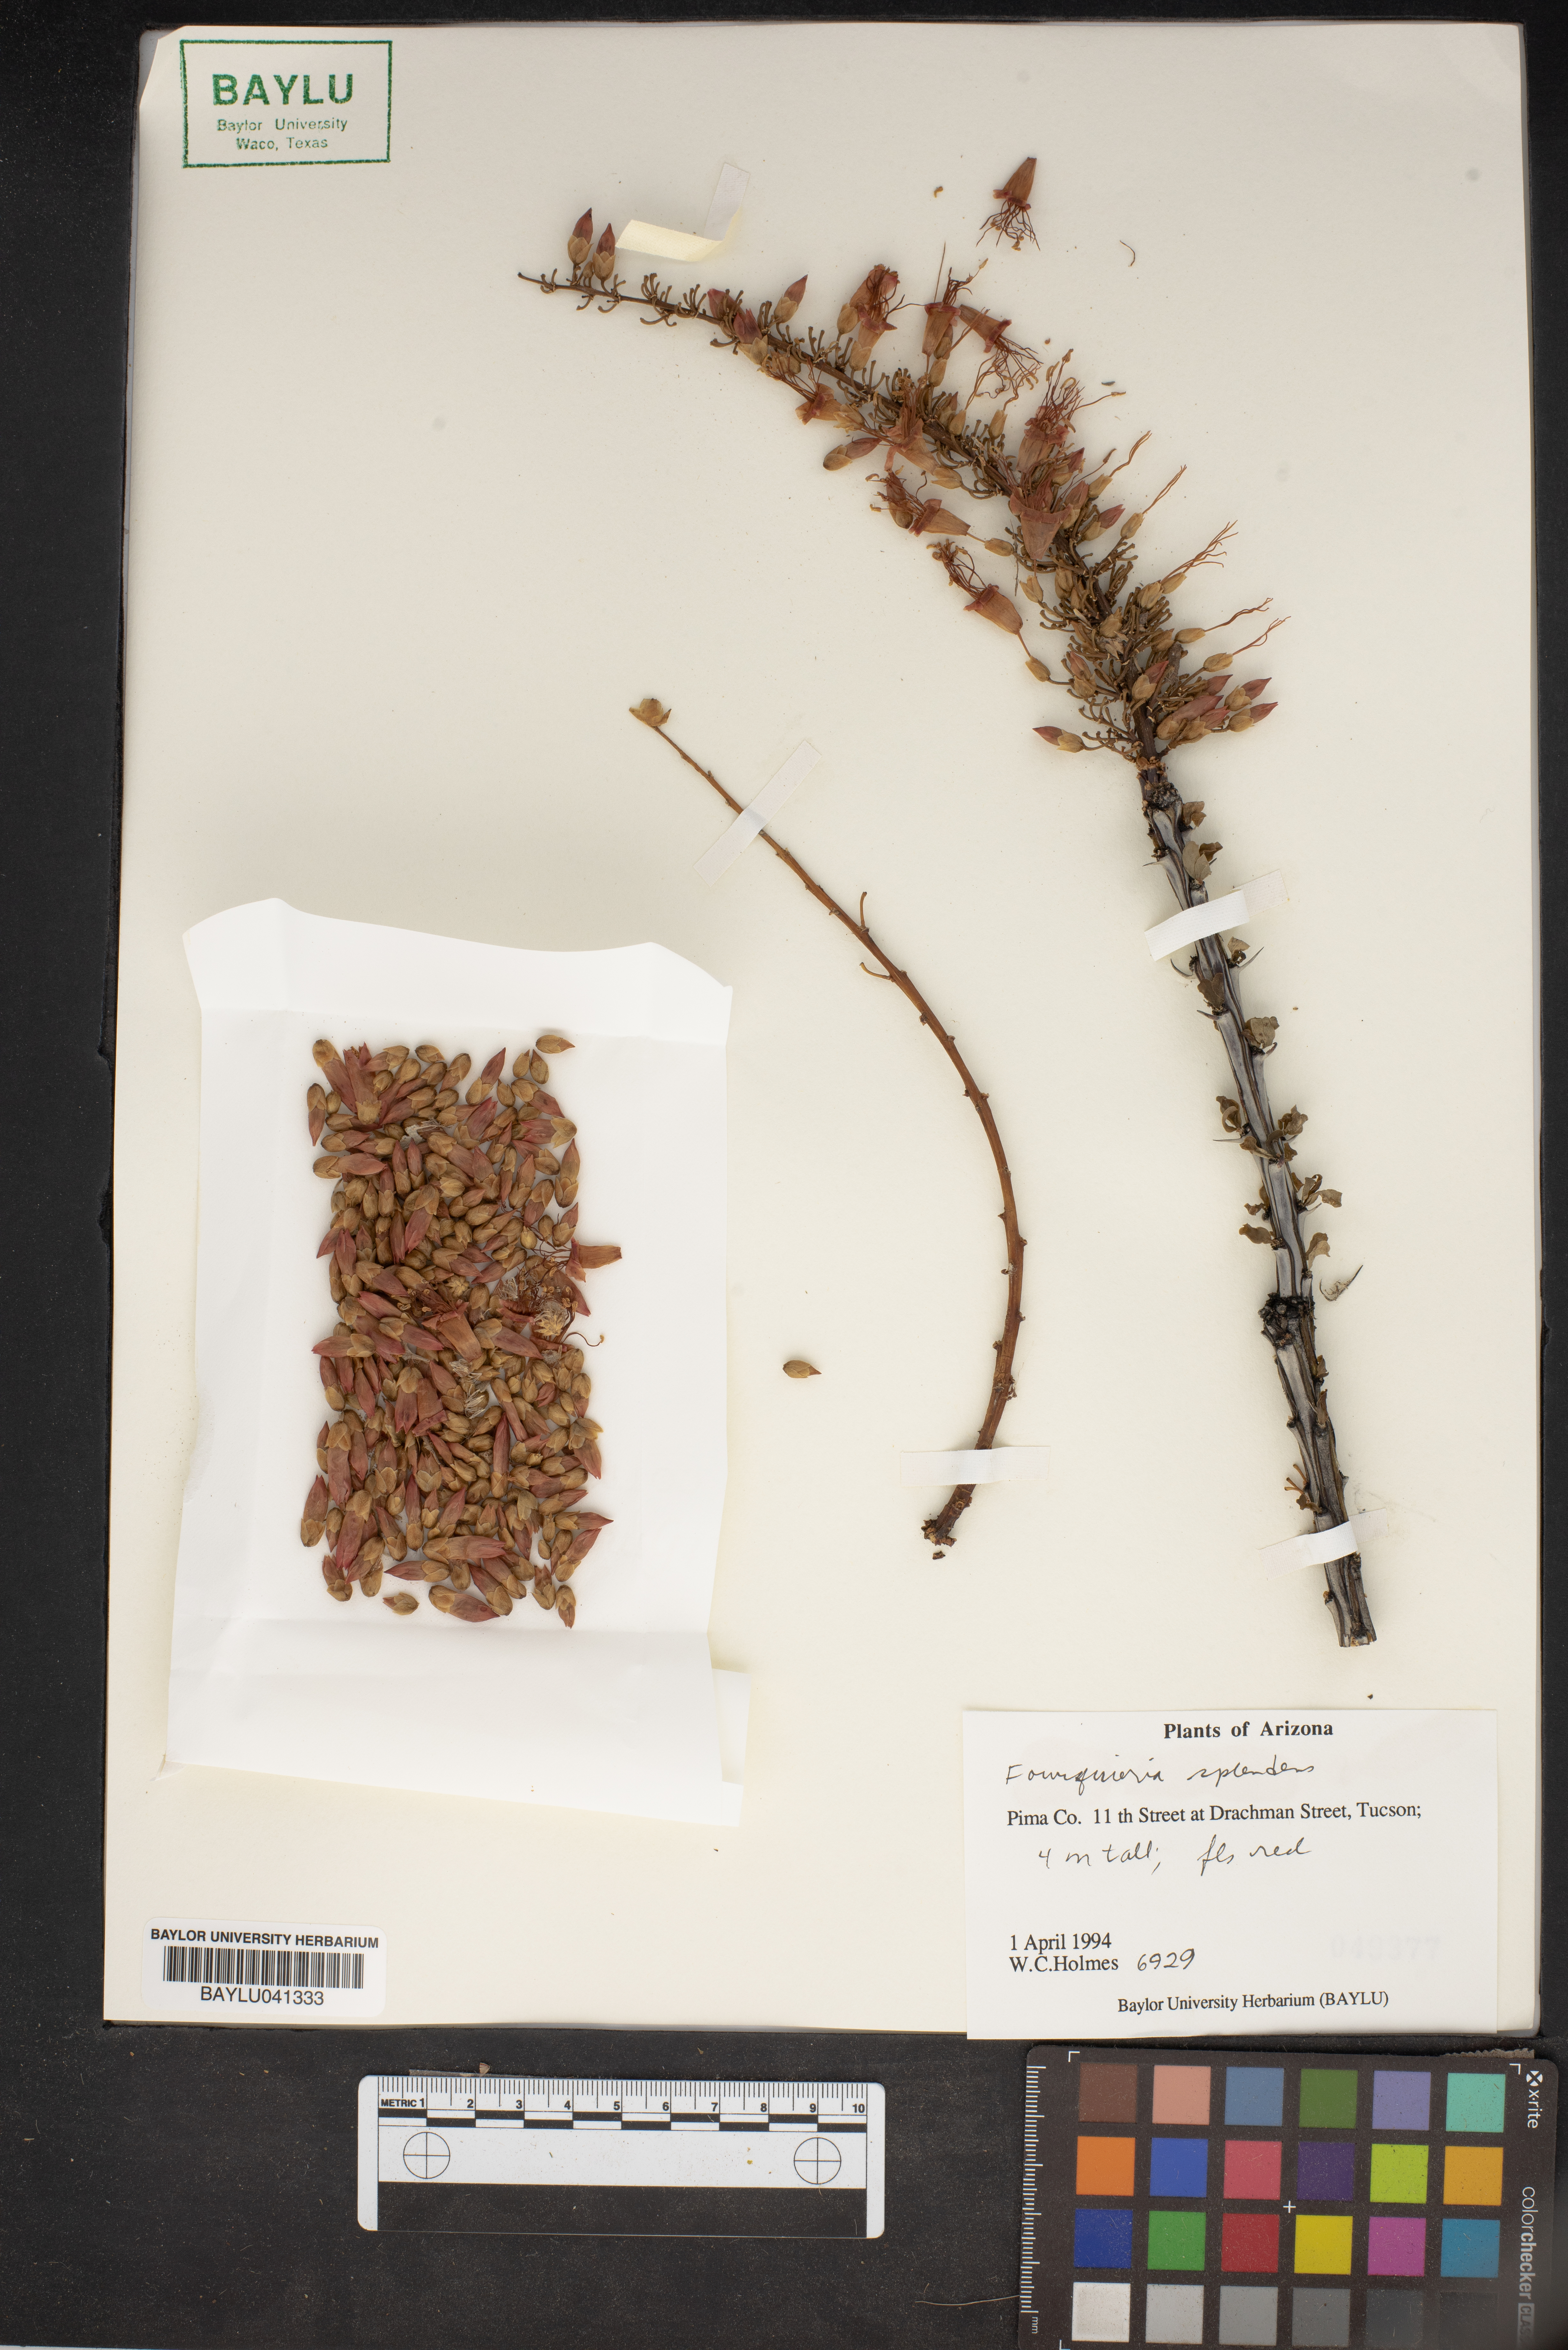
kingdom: Plantae
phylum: Tracheophyta
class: Magnoliopsida
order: Ericales
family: Fouquieriaceae
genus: Fouquieria
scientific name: Fouquieria splendens
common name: Vine-cactus
